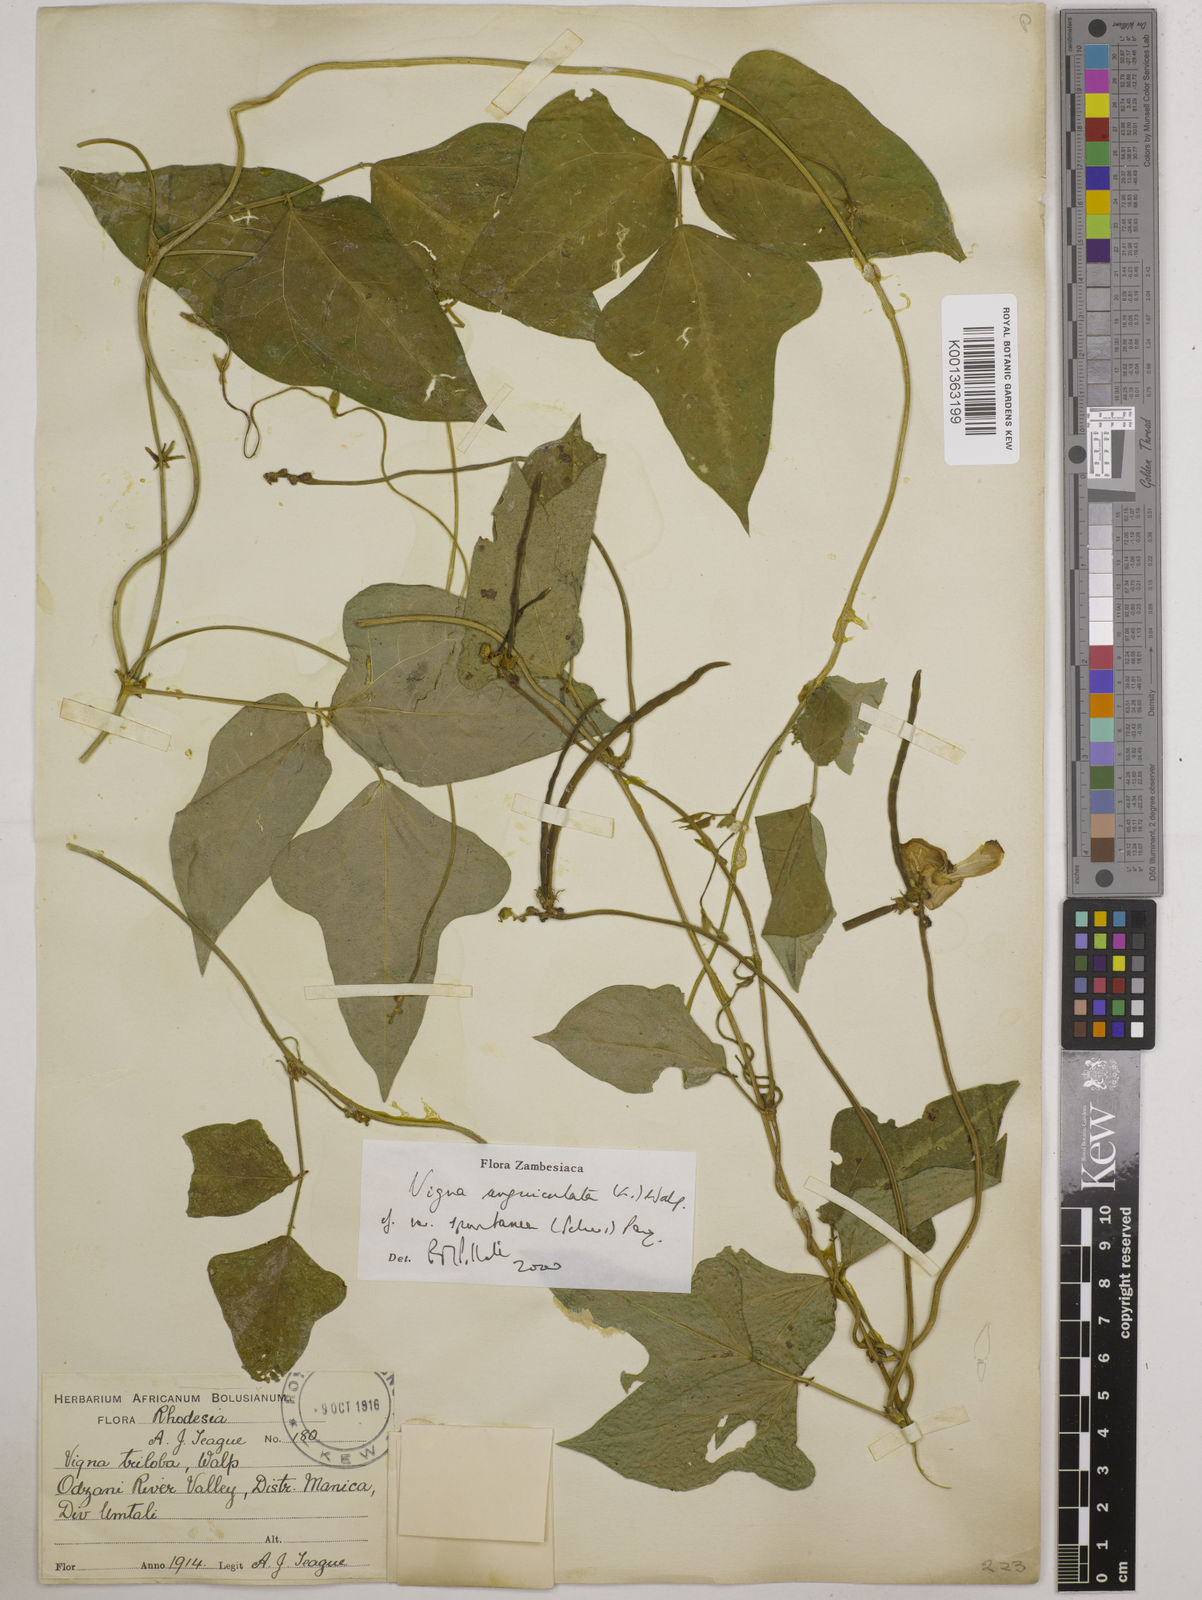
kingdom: Plantae
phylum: Tracheophyta
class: Magnoliopsida
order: Fabales
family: Fabaceae
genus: Vigna
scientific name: Vigna unguiculata
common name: Cowpea
